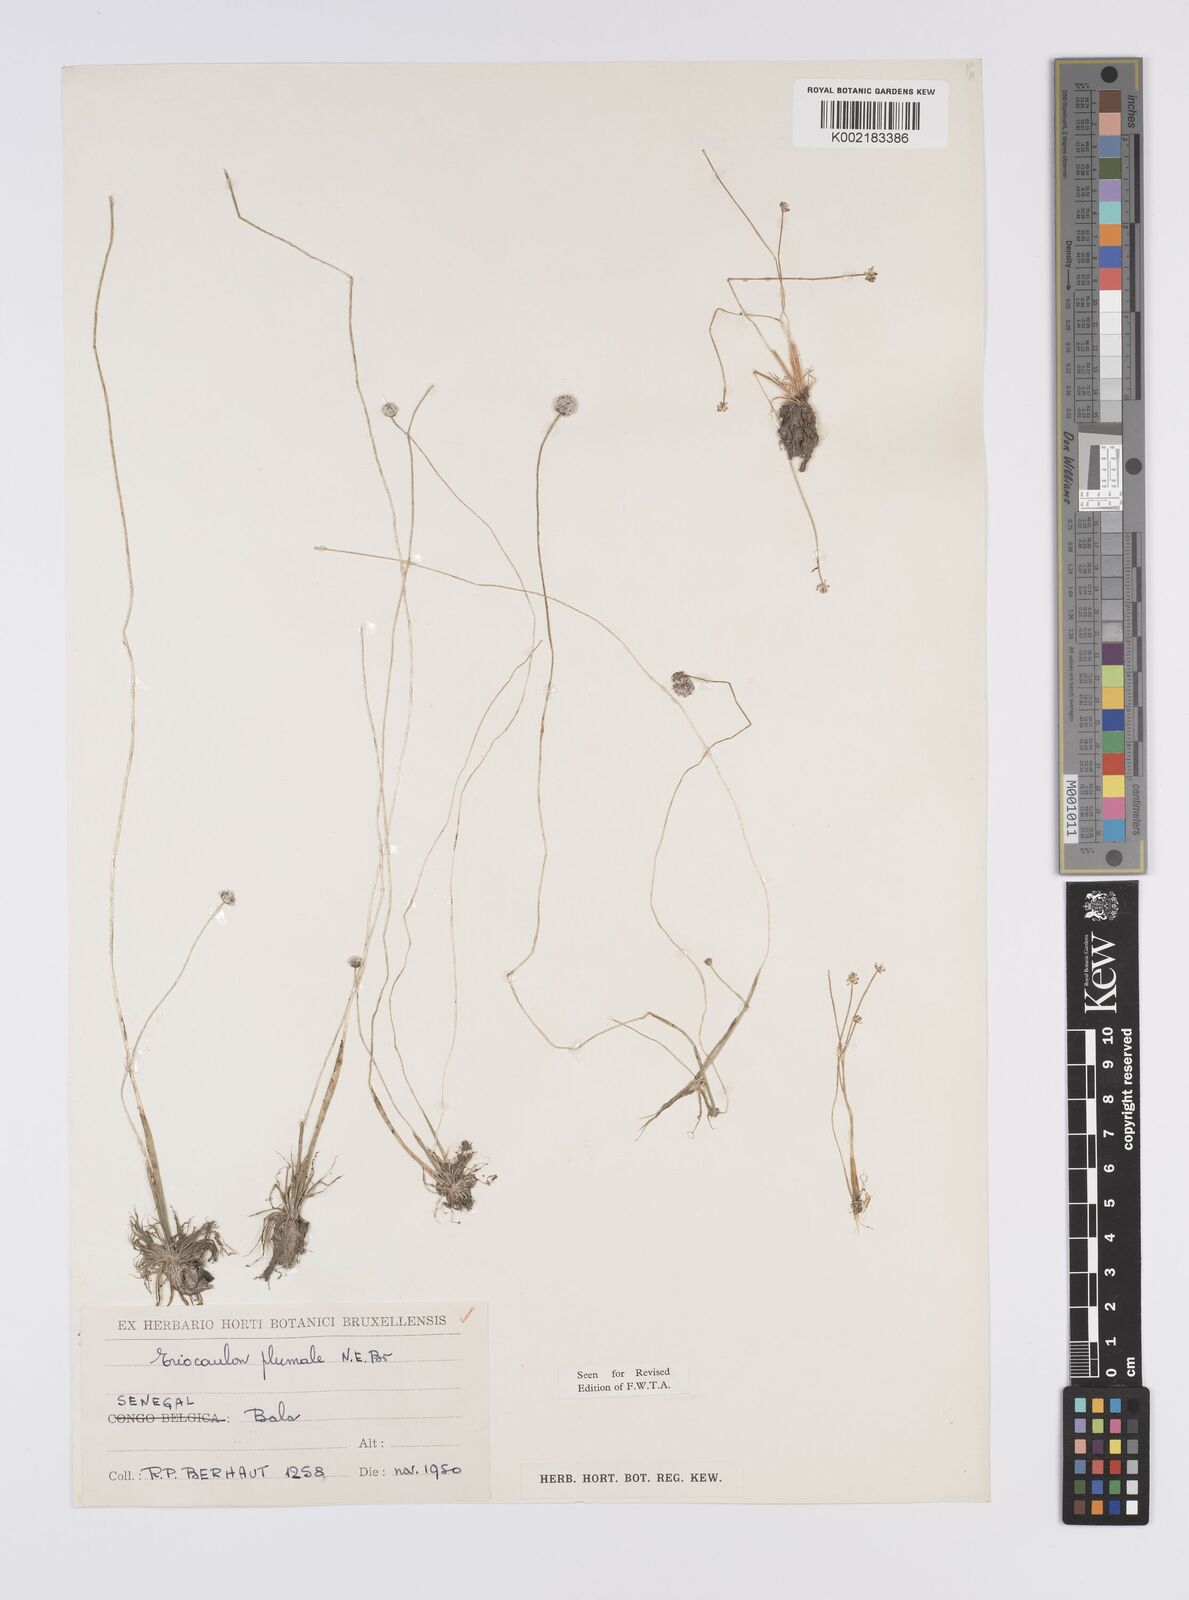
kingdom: Plantae
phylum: Tracheophyta
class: Liliopsida
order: Poales
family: Eriocaulaceae
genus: Eriocaulon
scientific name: Eriocaulon plumale
